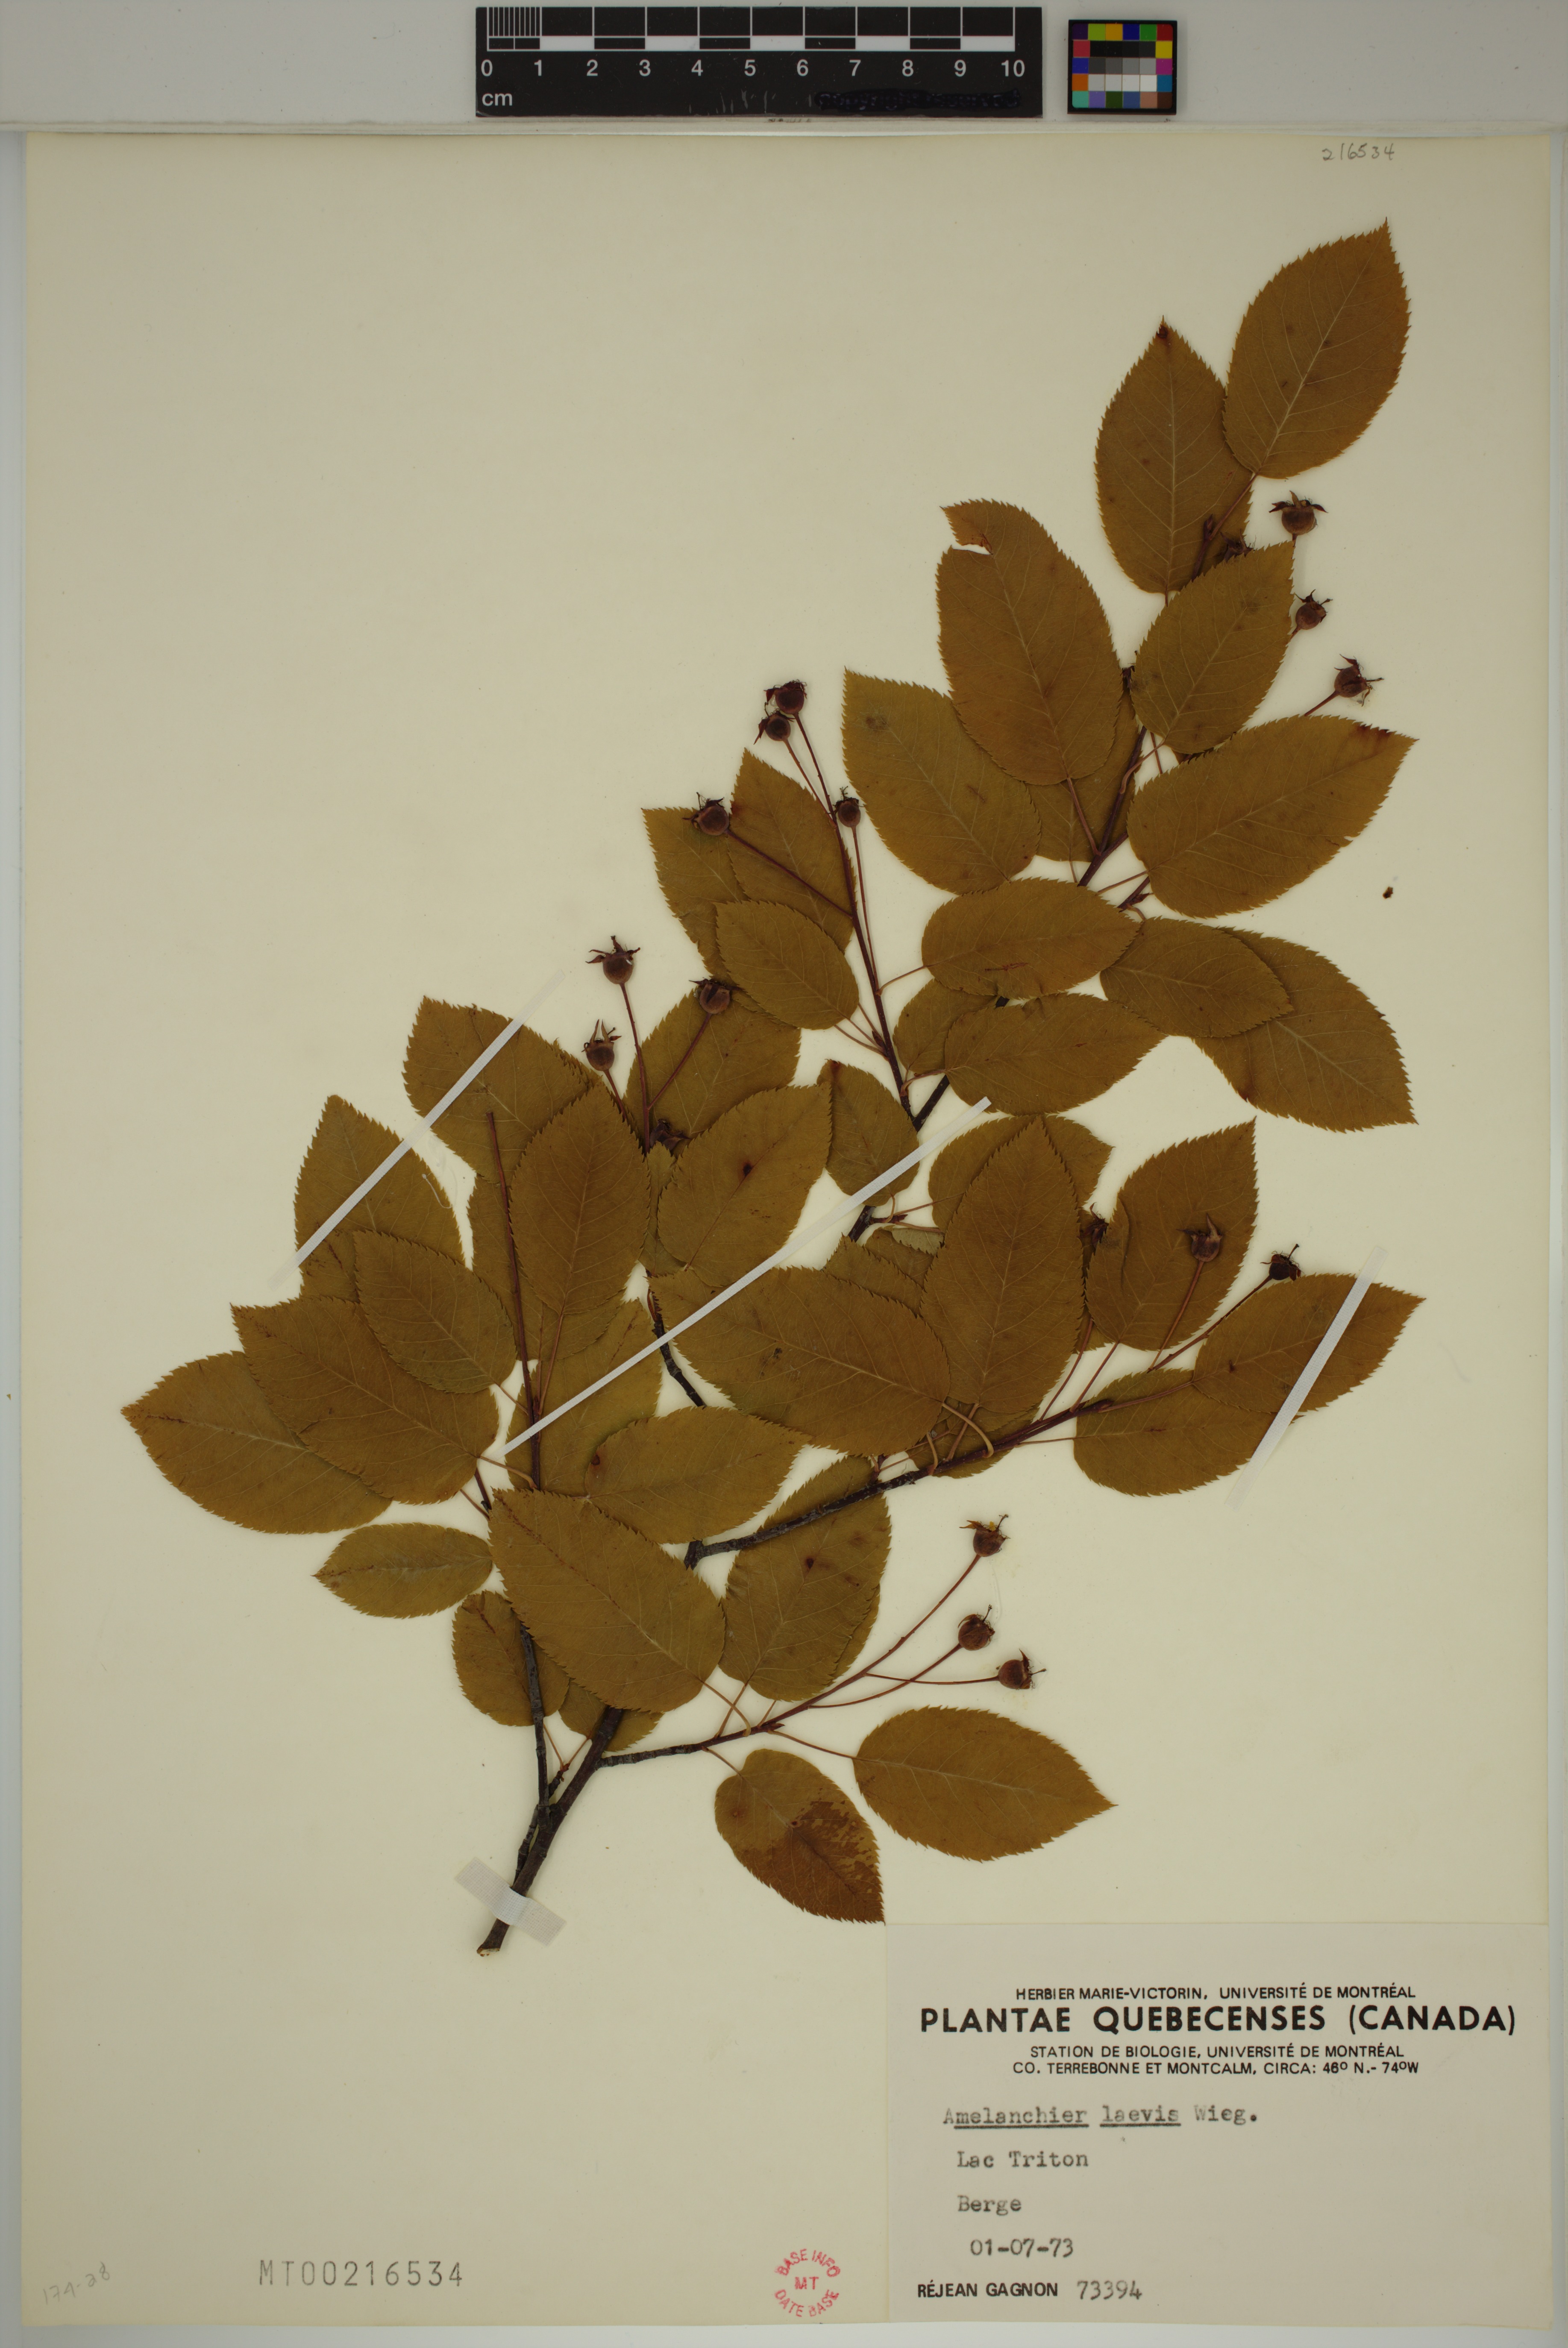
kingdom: Plantae
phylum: Tracheophyta
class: Magnoliopsida
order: Rosales
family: Rosaceae
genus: Amelanchier
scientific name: Amelanchier laevis
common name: Allegheny serviceberry
